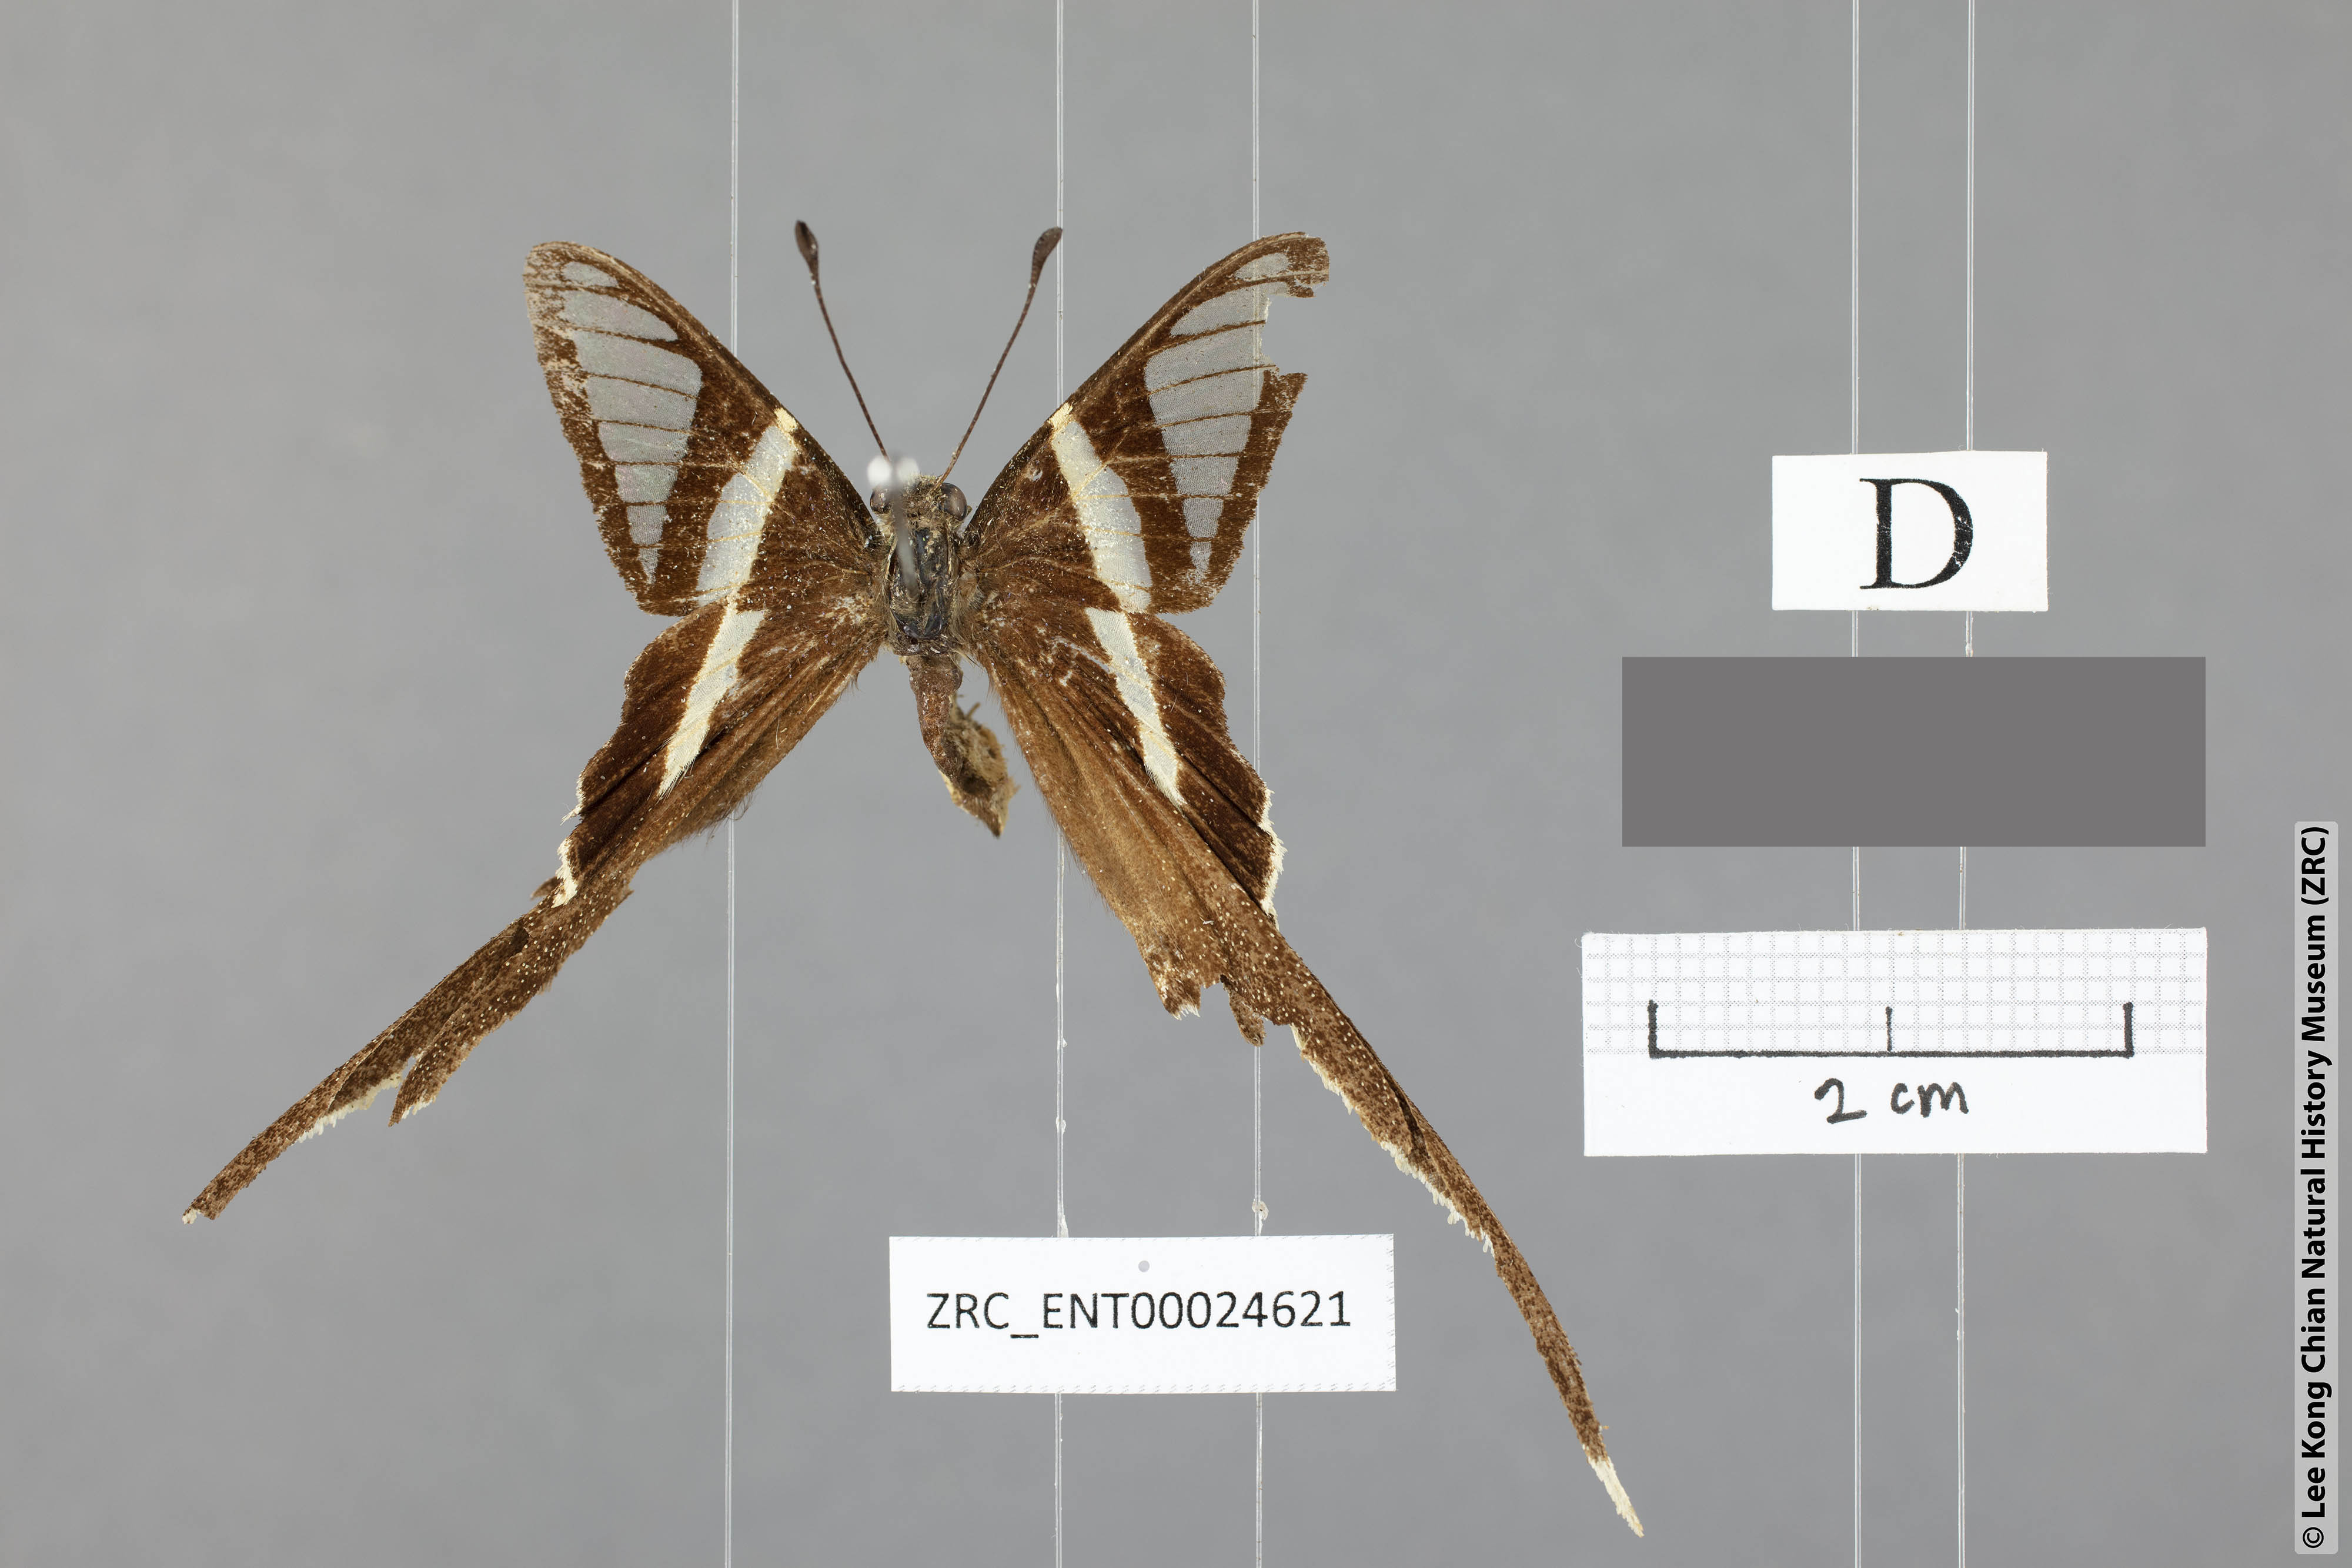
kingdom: Animalia
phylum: Arthropoda
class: Insecta
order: Lepidoptera
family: Papilionidae
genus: Lamproptera
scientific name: Lamproptera curius
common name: White dragontail
